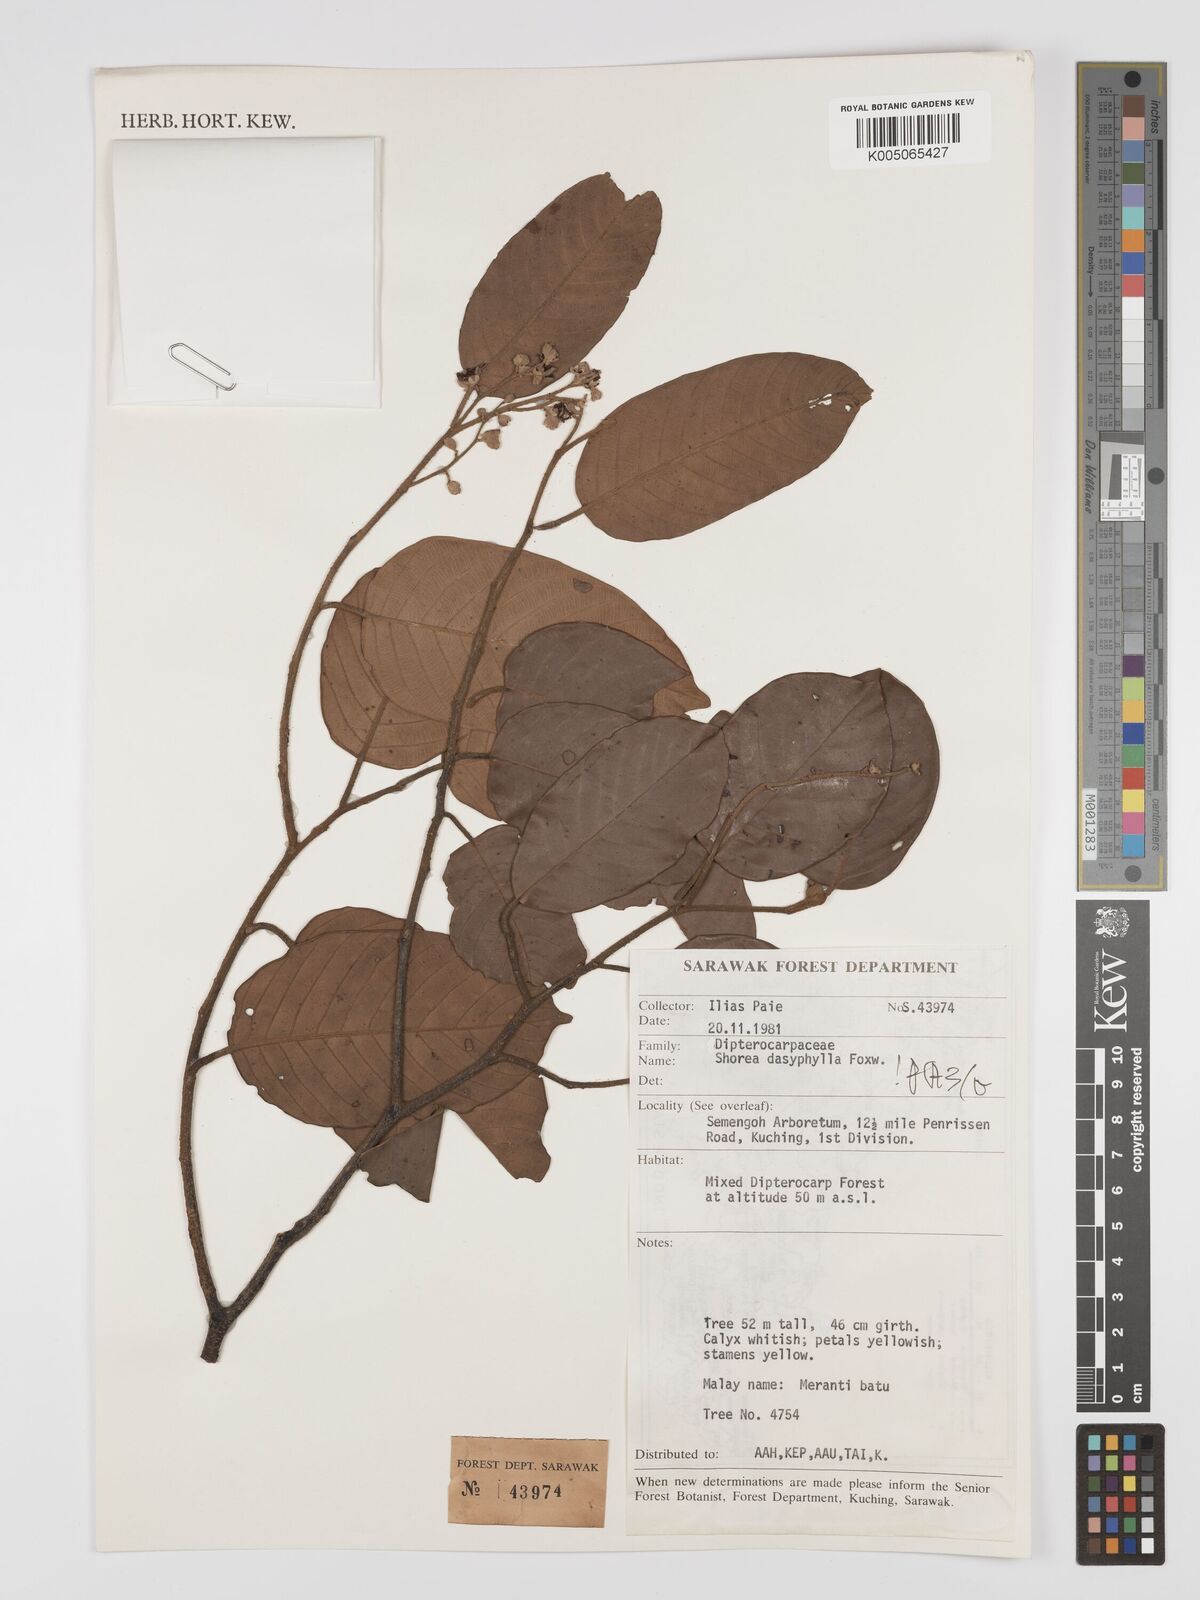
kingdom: Plantae
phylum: Tracheophyta
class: Magnoliopsida
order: Malvales
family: Dipterocarpaceae
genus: Shorea
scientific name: Shorea dasyphylla
